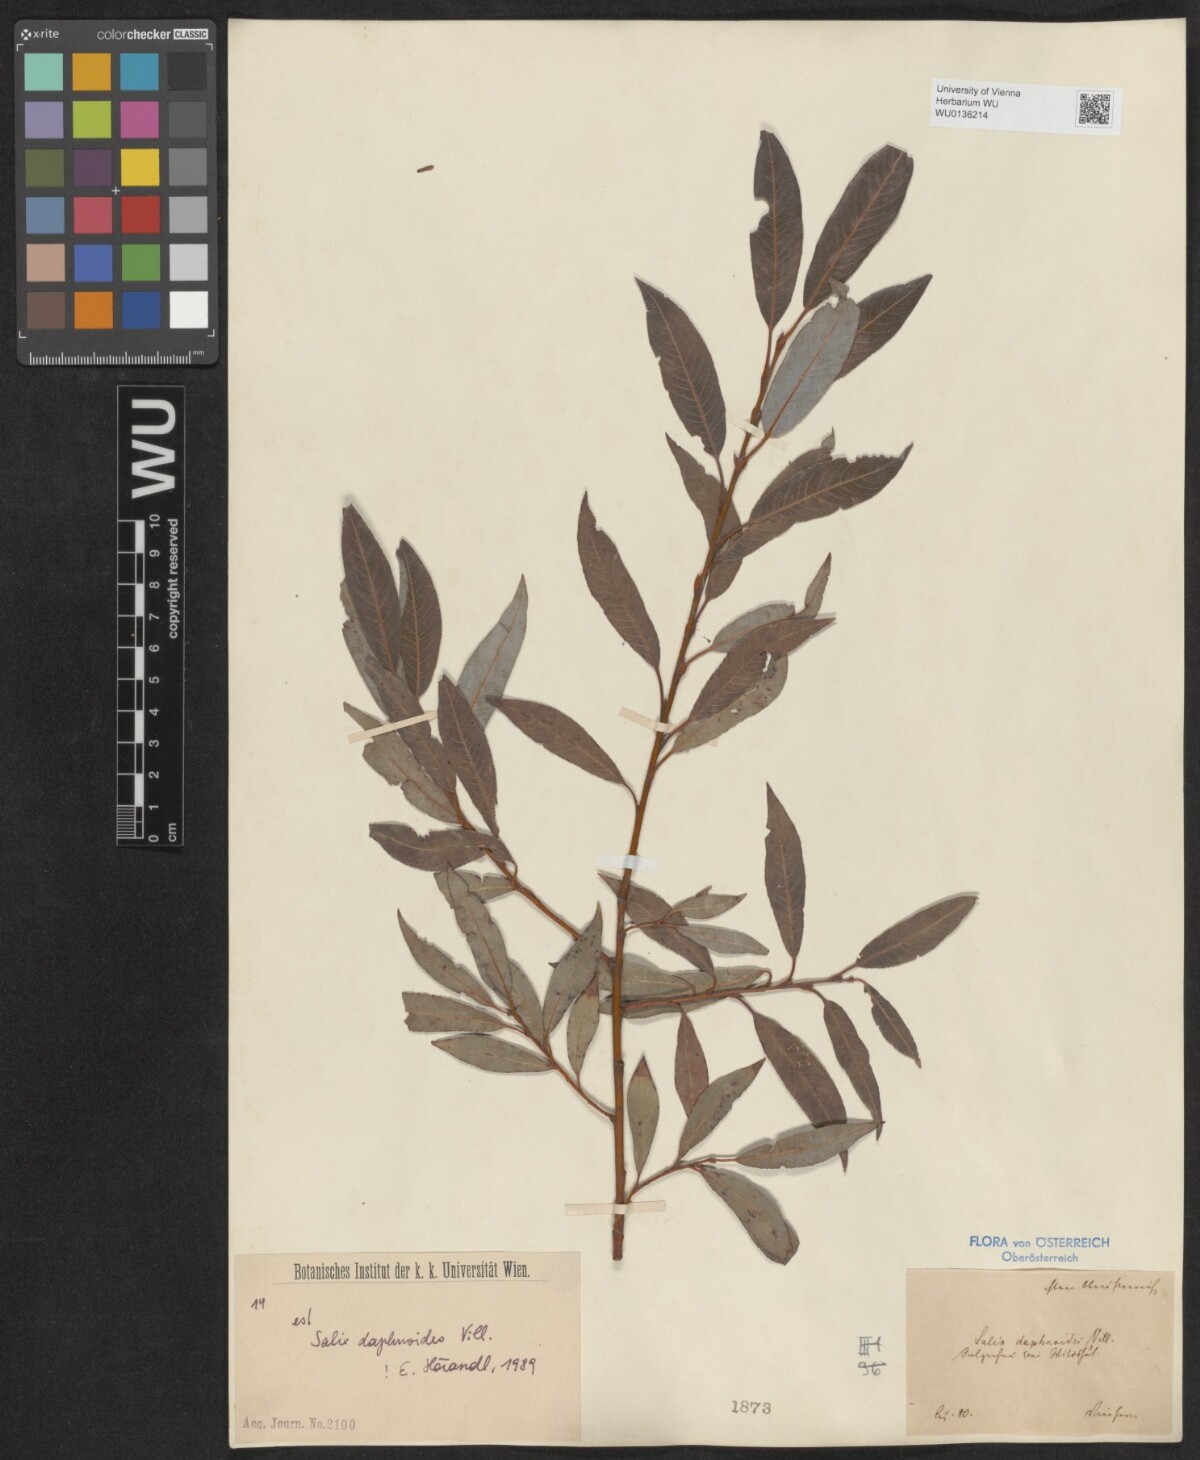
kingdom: Plantae
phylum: Tracheophyta
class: Magnoliopsida
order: Malpighiales
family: Salicaceae
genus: Salix
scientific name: Salix daphnoides
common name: European violet-willow
